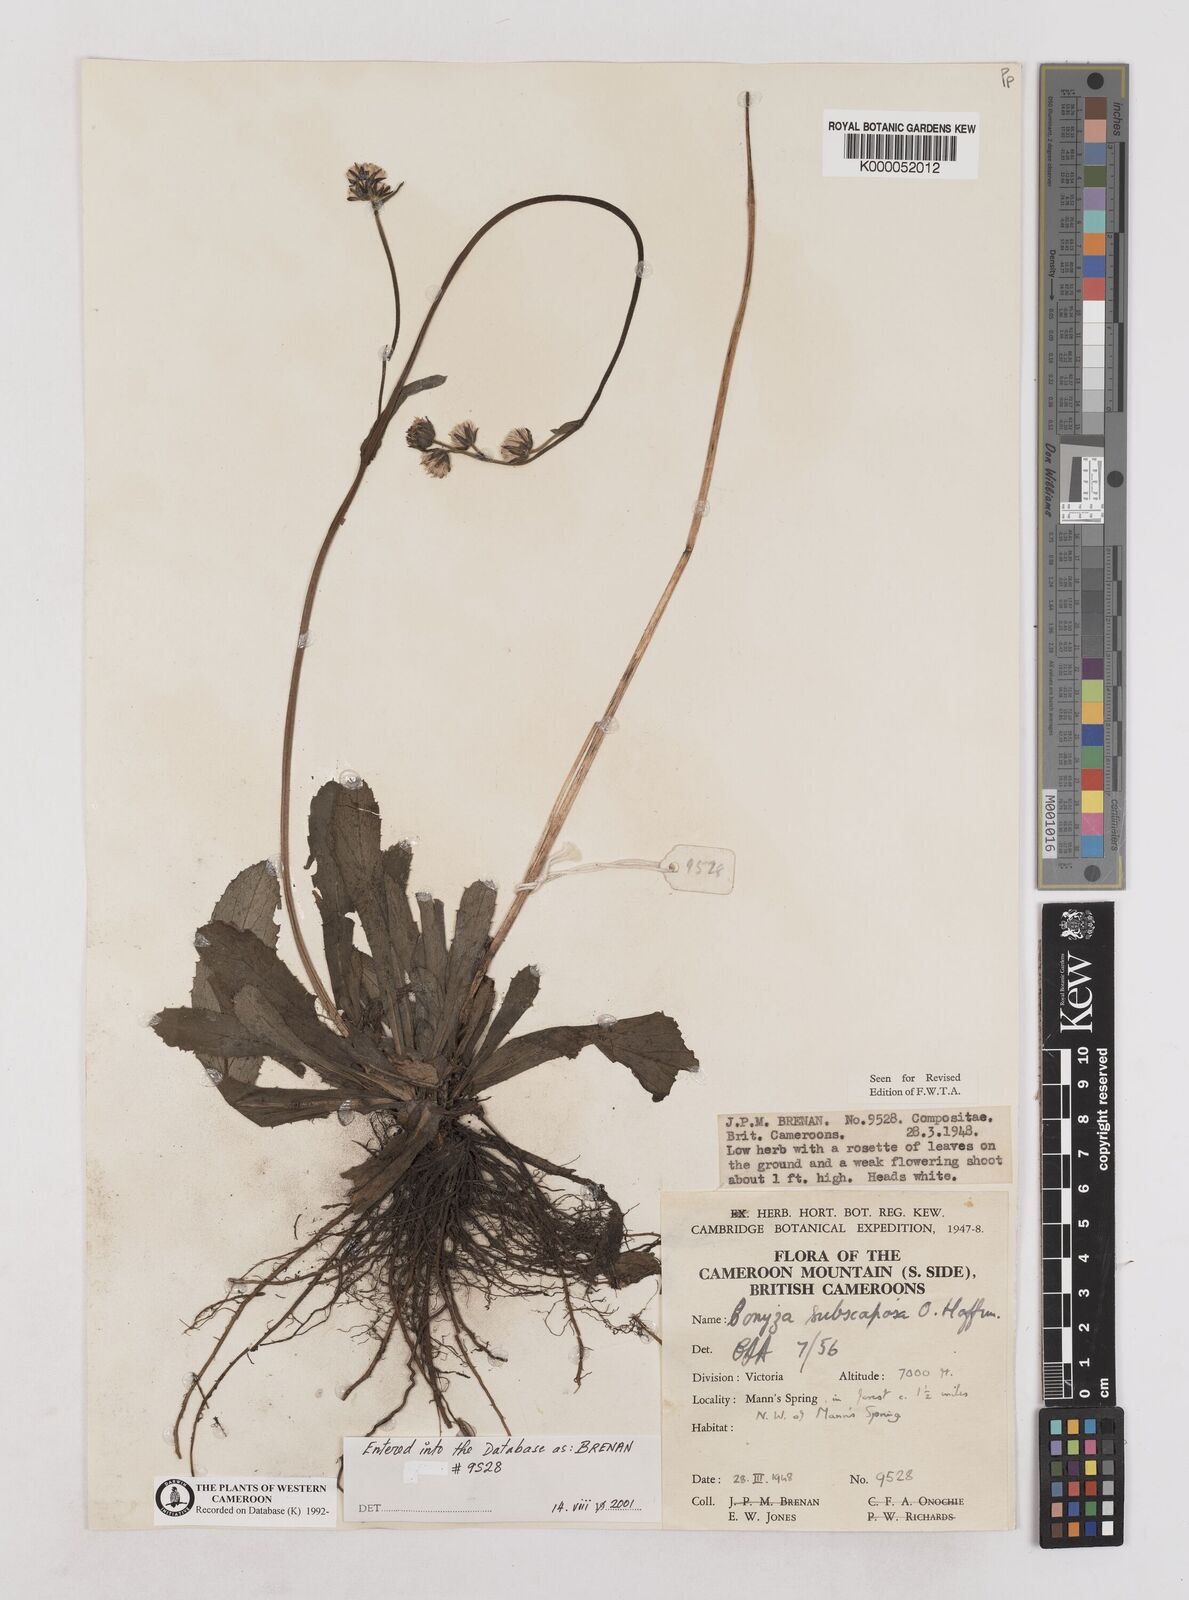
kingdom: Plantae
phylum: Tracheophyta
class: Magnoliopsida
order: Asterales
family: Asteraceae
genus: Eschenbachia
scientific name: Eschenbachia subscaposa
